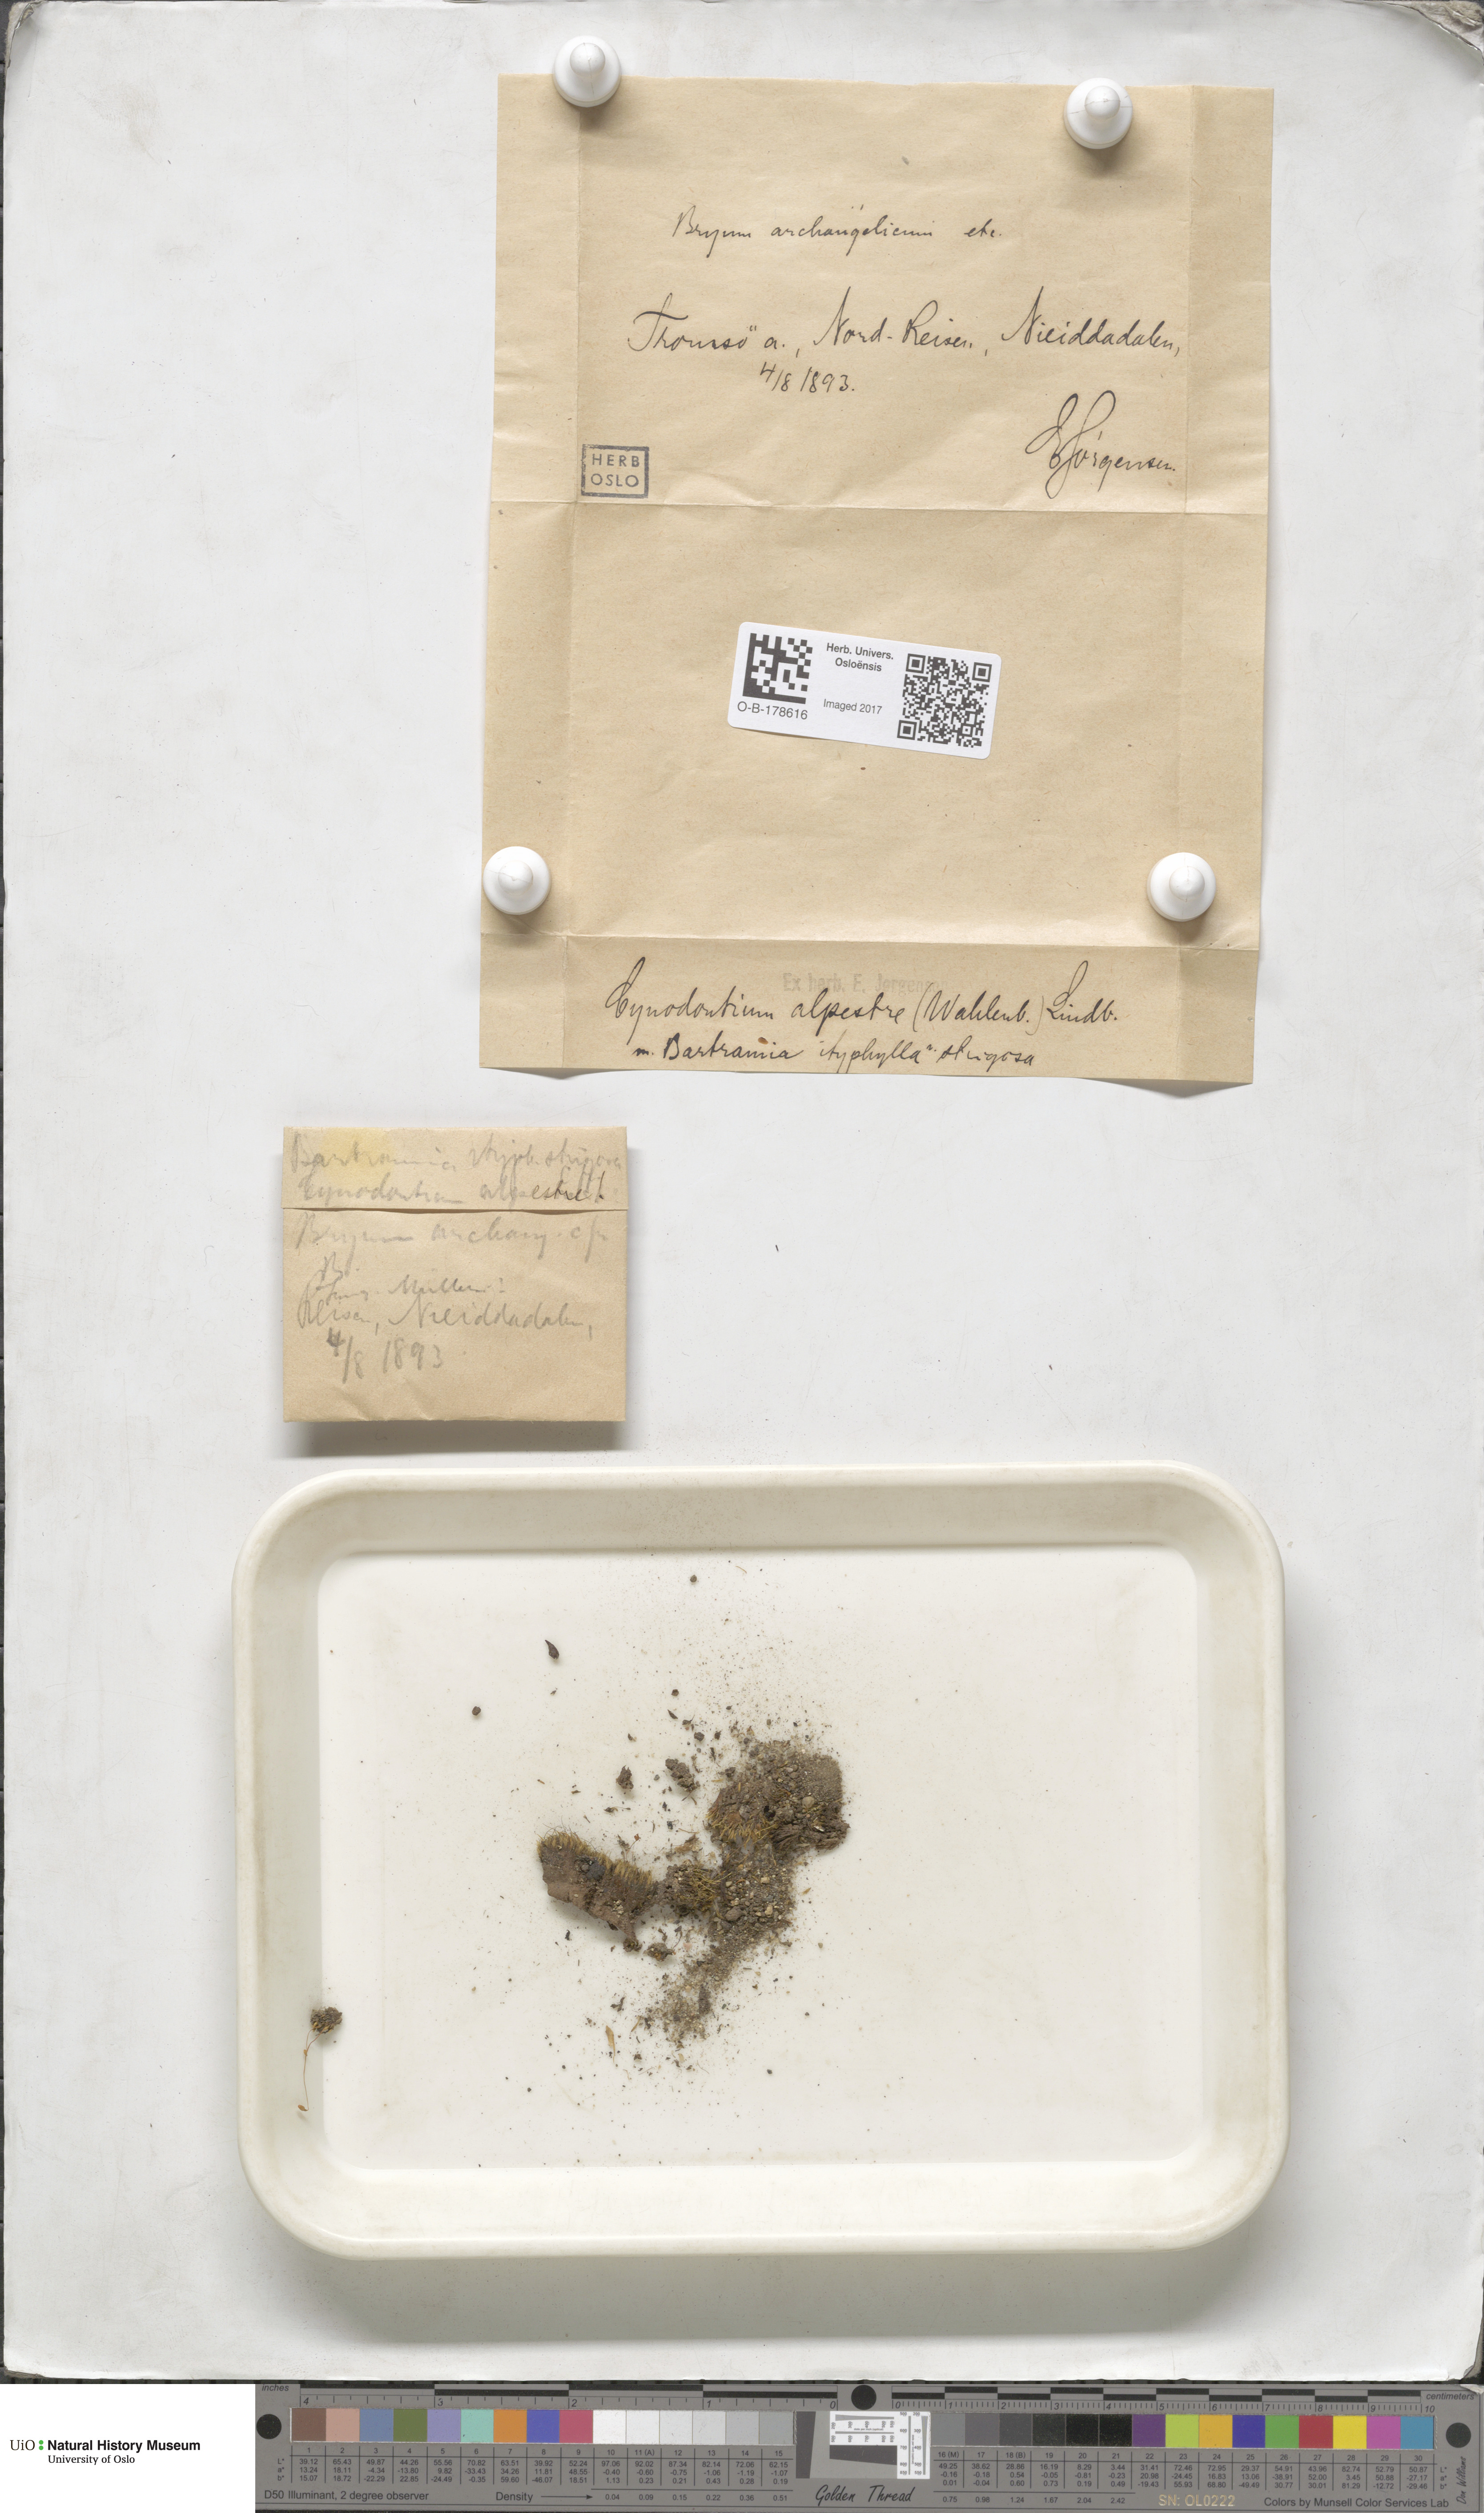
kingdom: Plantae
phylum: Bryophyta
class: Bryopsida
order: Dicranales
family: Rhabdoweisiaceae
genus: Cnestrum
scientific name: Cnestrum alpestre
